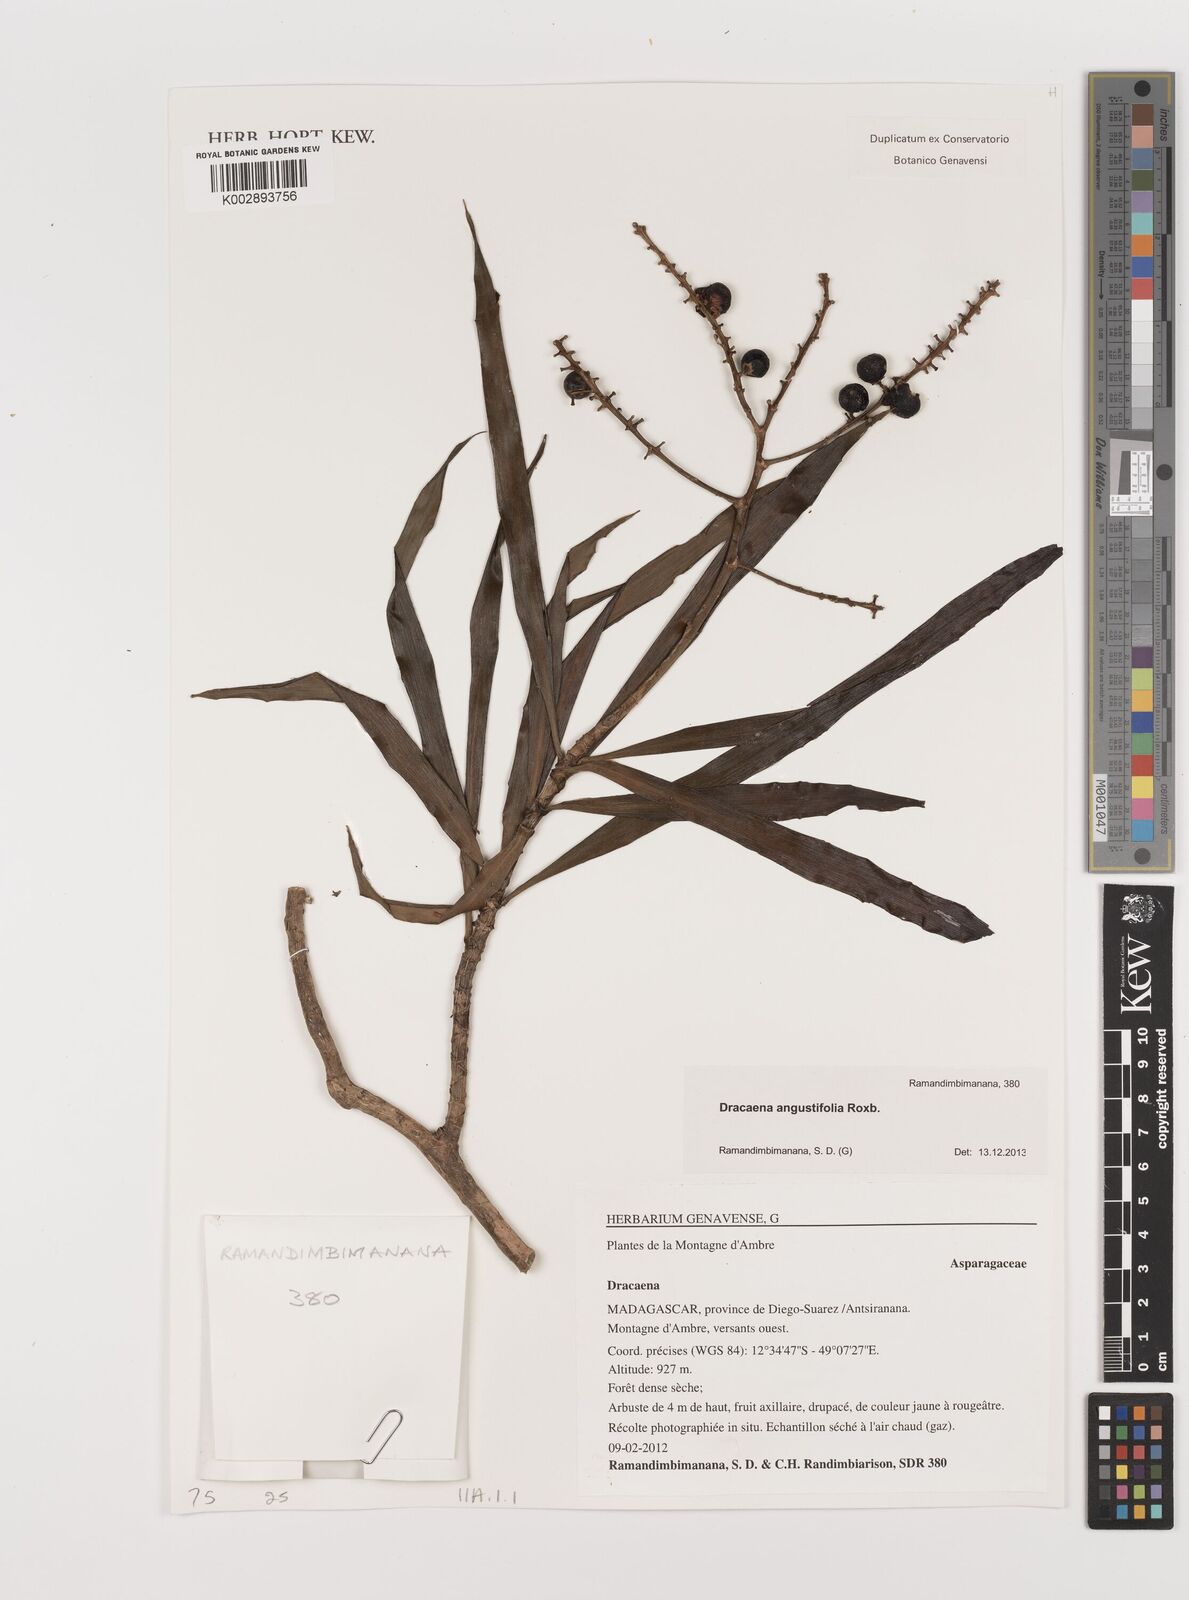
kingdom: Plantae
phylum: Tracheophyta
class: Liliopsida
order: Asparagales
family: Asparagaceae
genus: Dracaena
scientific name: Dracaena angustifolia
